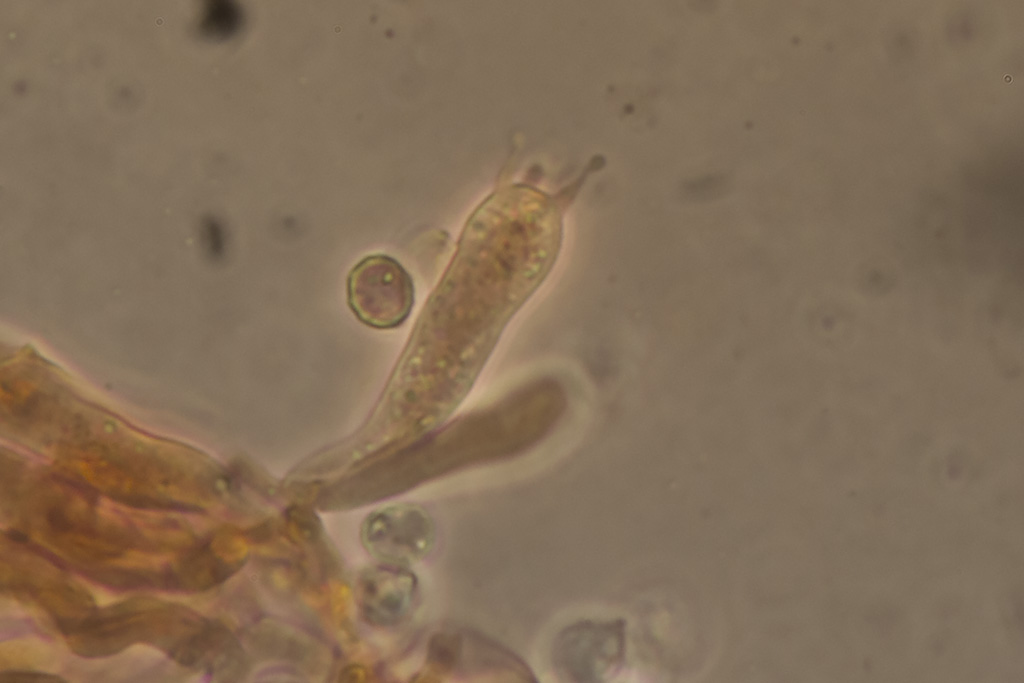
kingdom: Fungi
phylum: Basidiomycota
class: Agaricomycetes
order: Agaricales
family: Entolomataceae
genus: Rhodocybe
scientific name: Rhodocybe tugrulii
